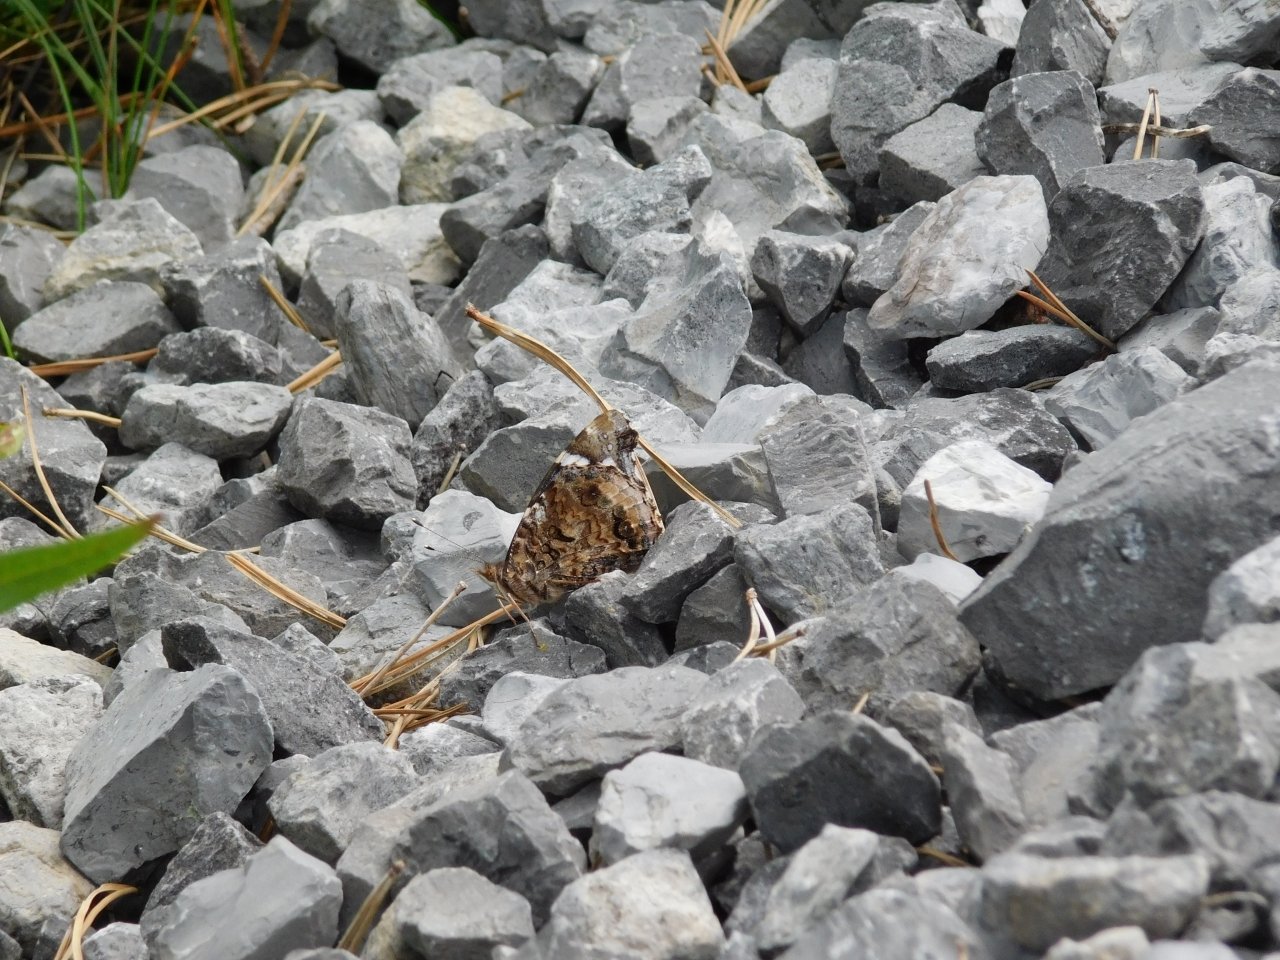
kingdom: Animalia
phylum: Arthropoda
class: Insecta
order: Lepidoptera
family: Nymphalidae
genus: Vanessa
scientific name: Vanessa atalanta
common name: Red Admiral
